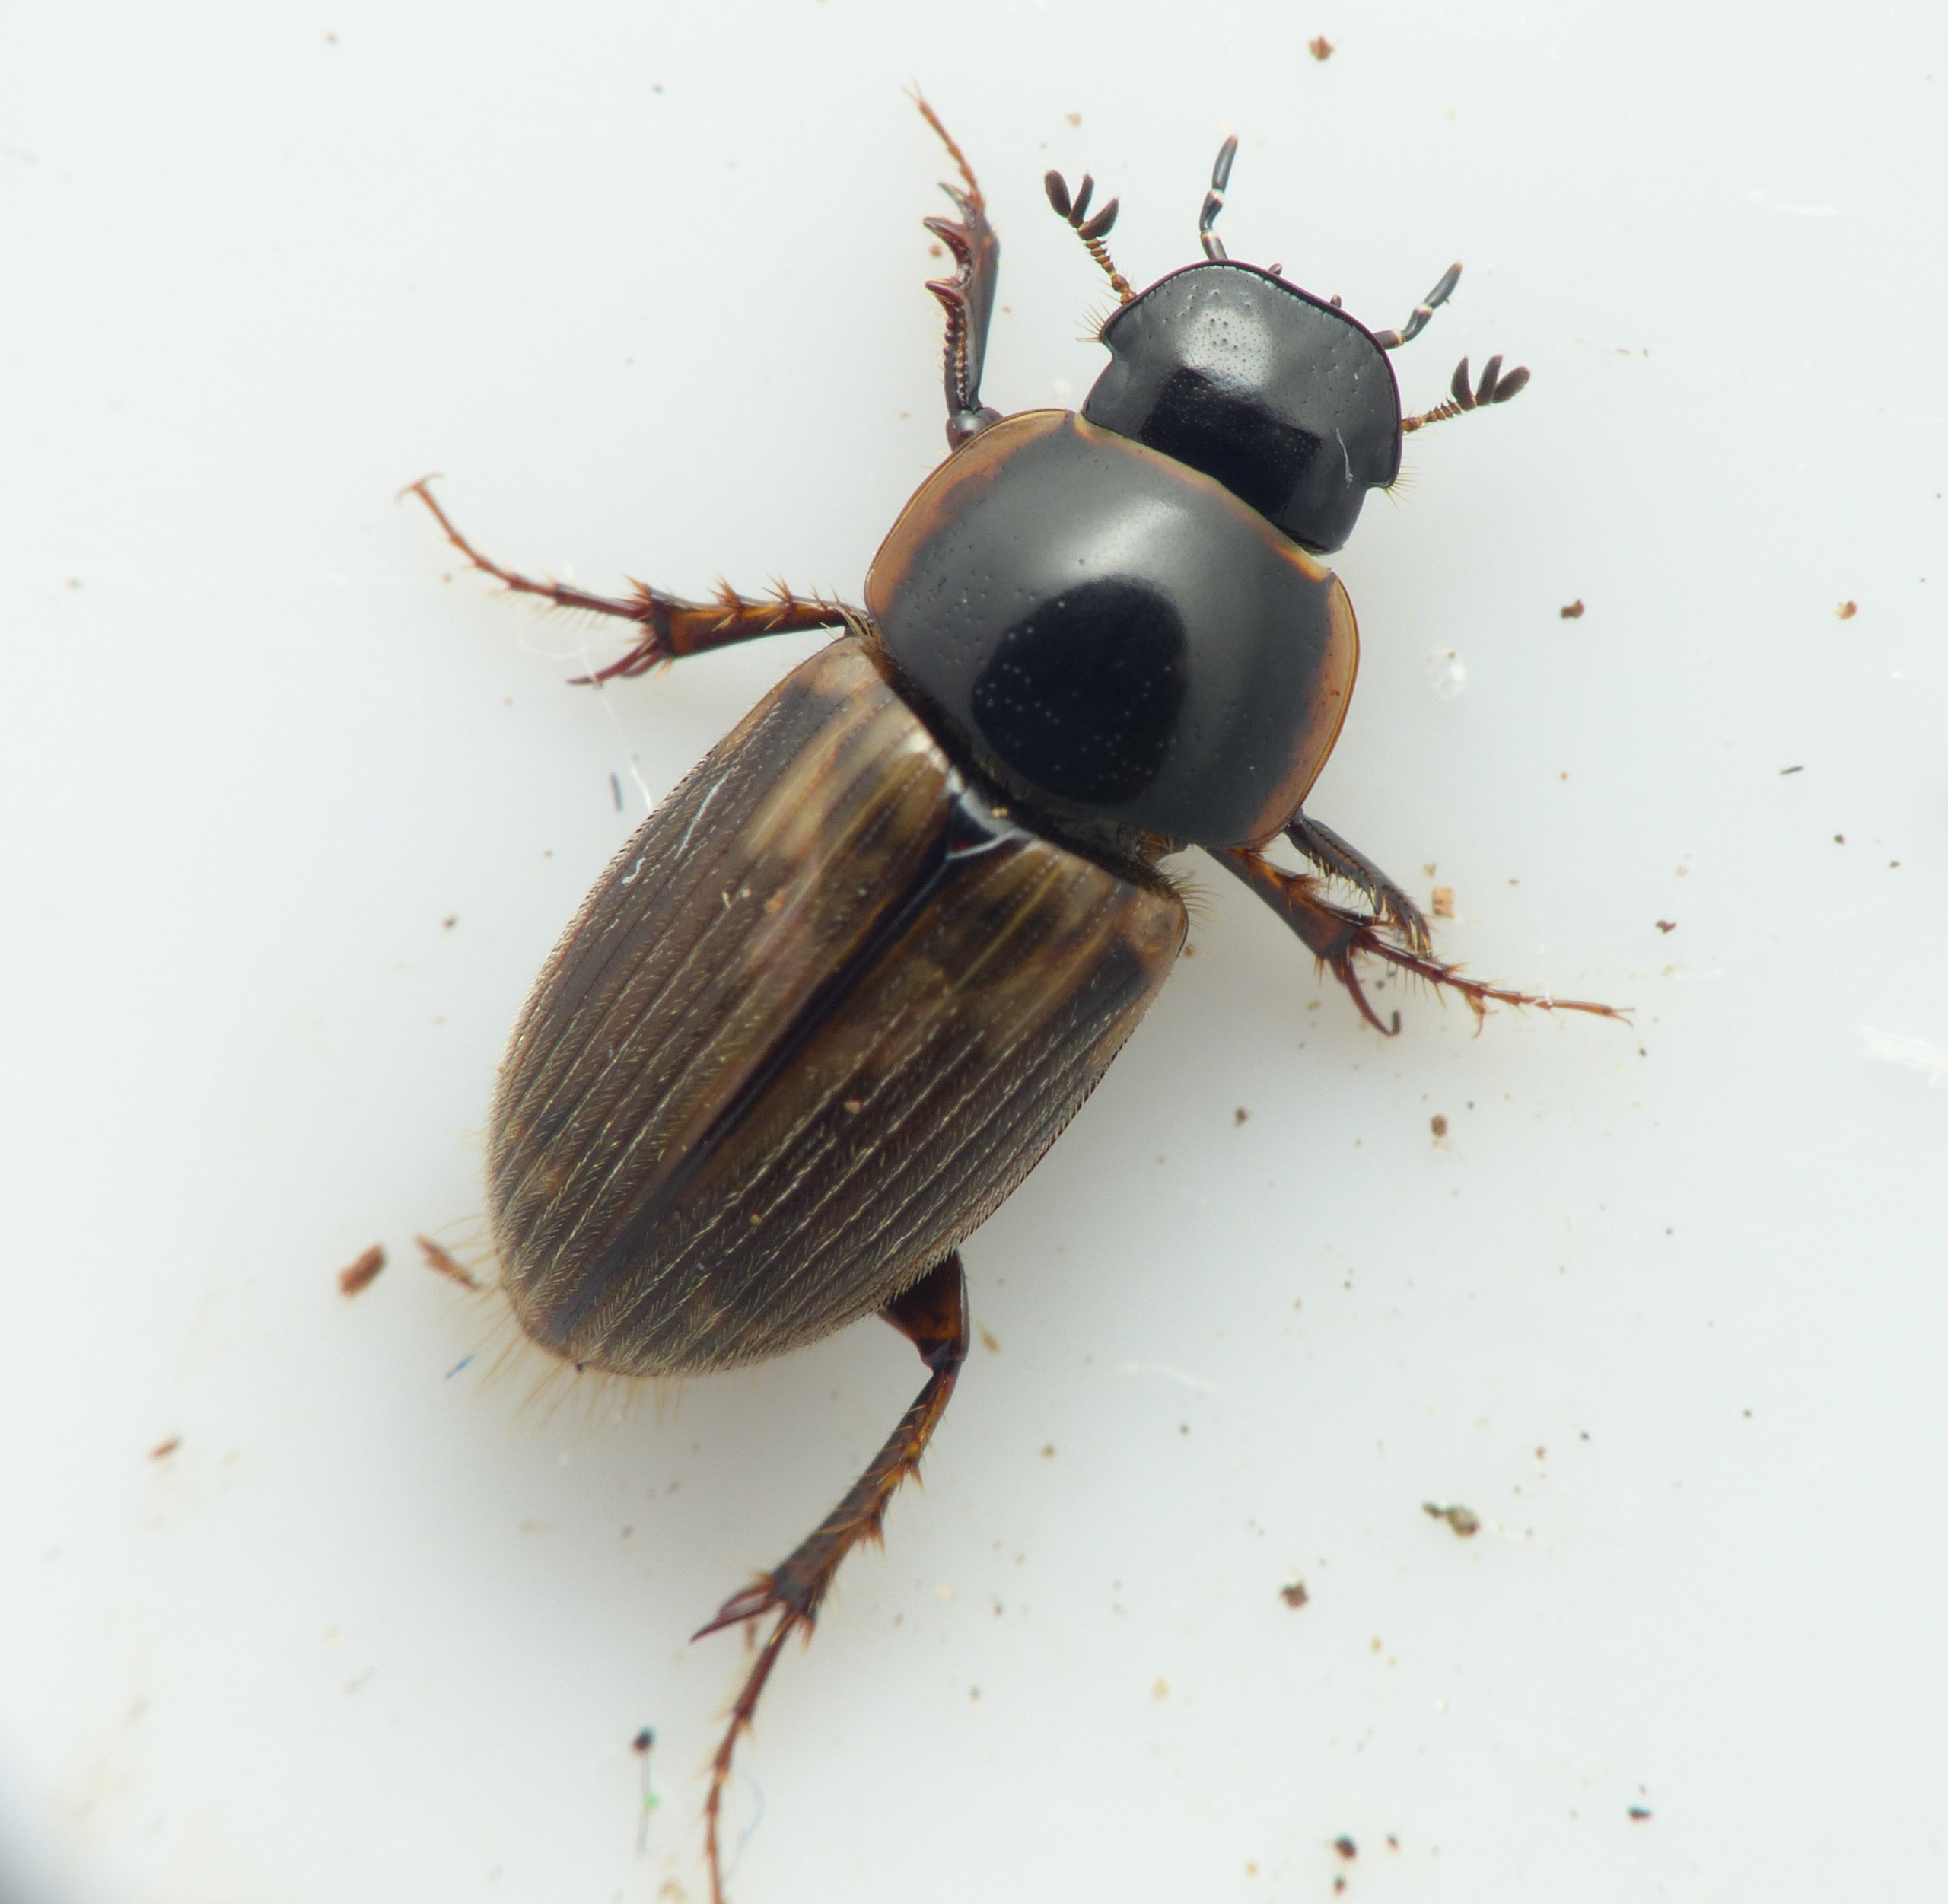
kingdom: Animalia
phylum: Arthropoda
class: Insecta
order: Coleoptera
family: Scarabaeidae
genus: Nimbus
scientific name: Nimbus contaminatus
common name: Sandhåret møgbille
